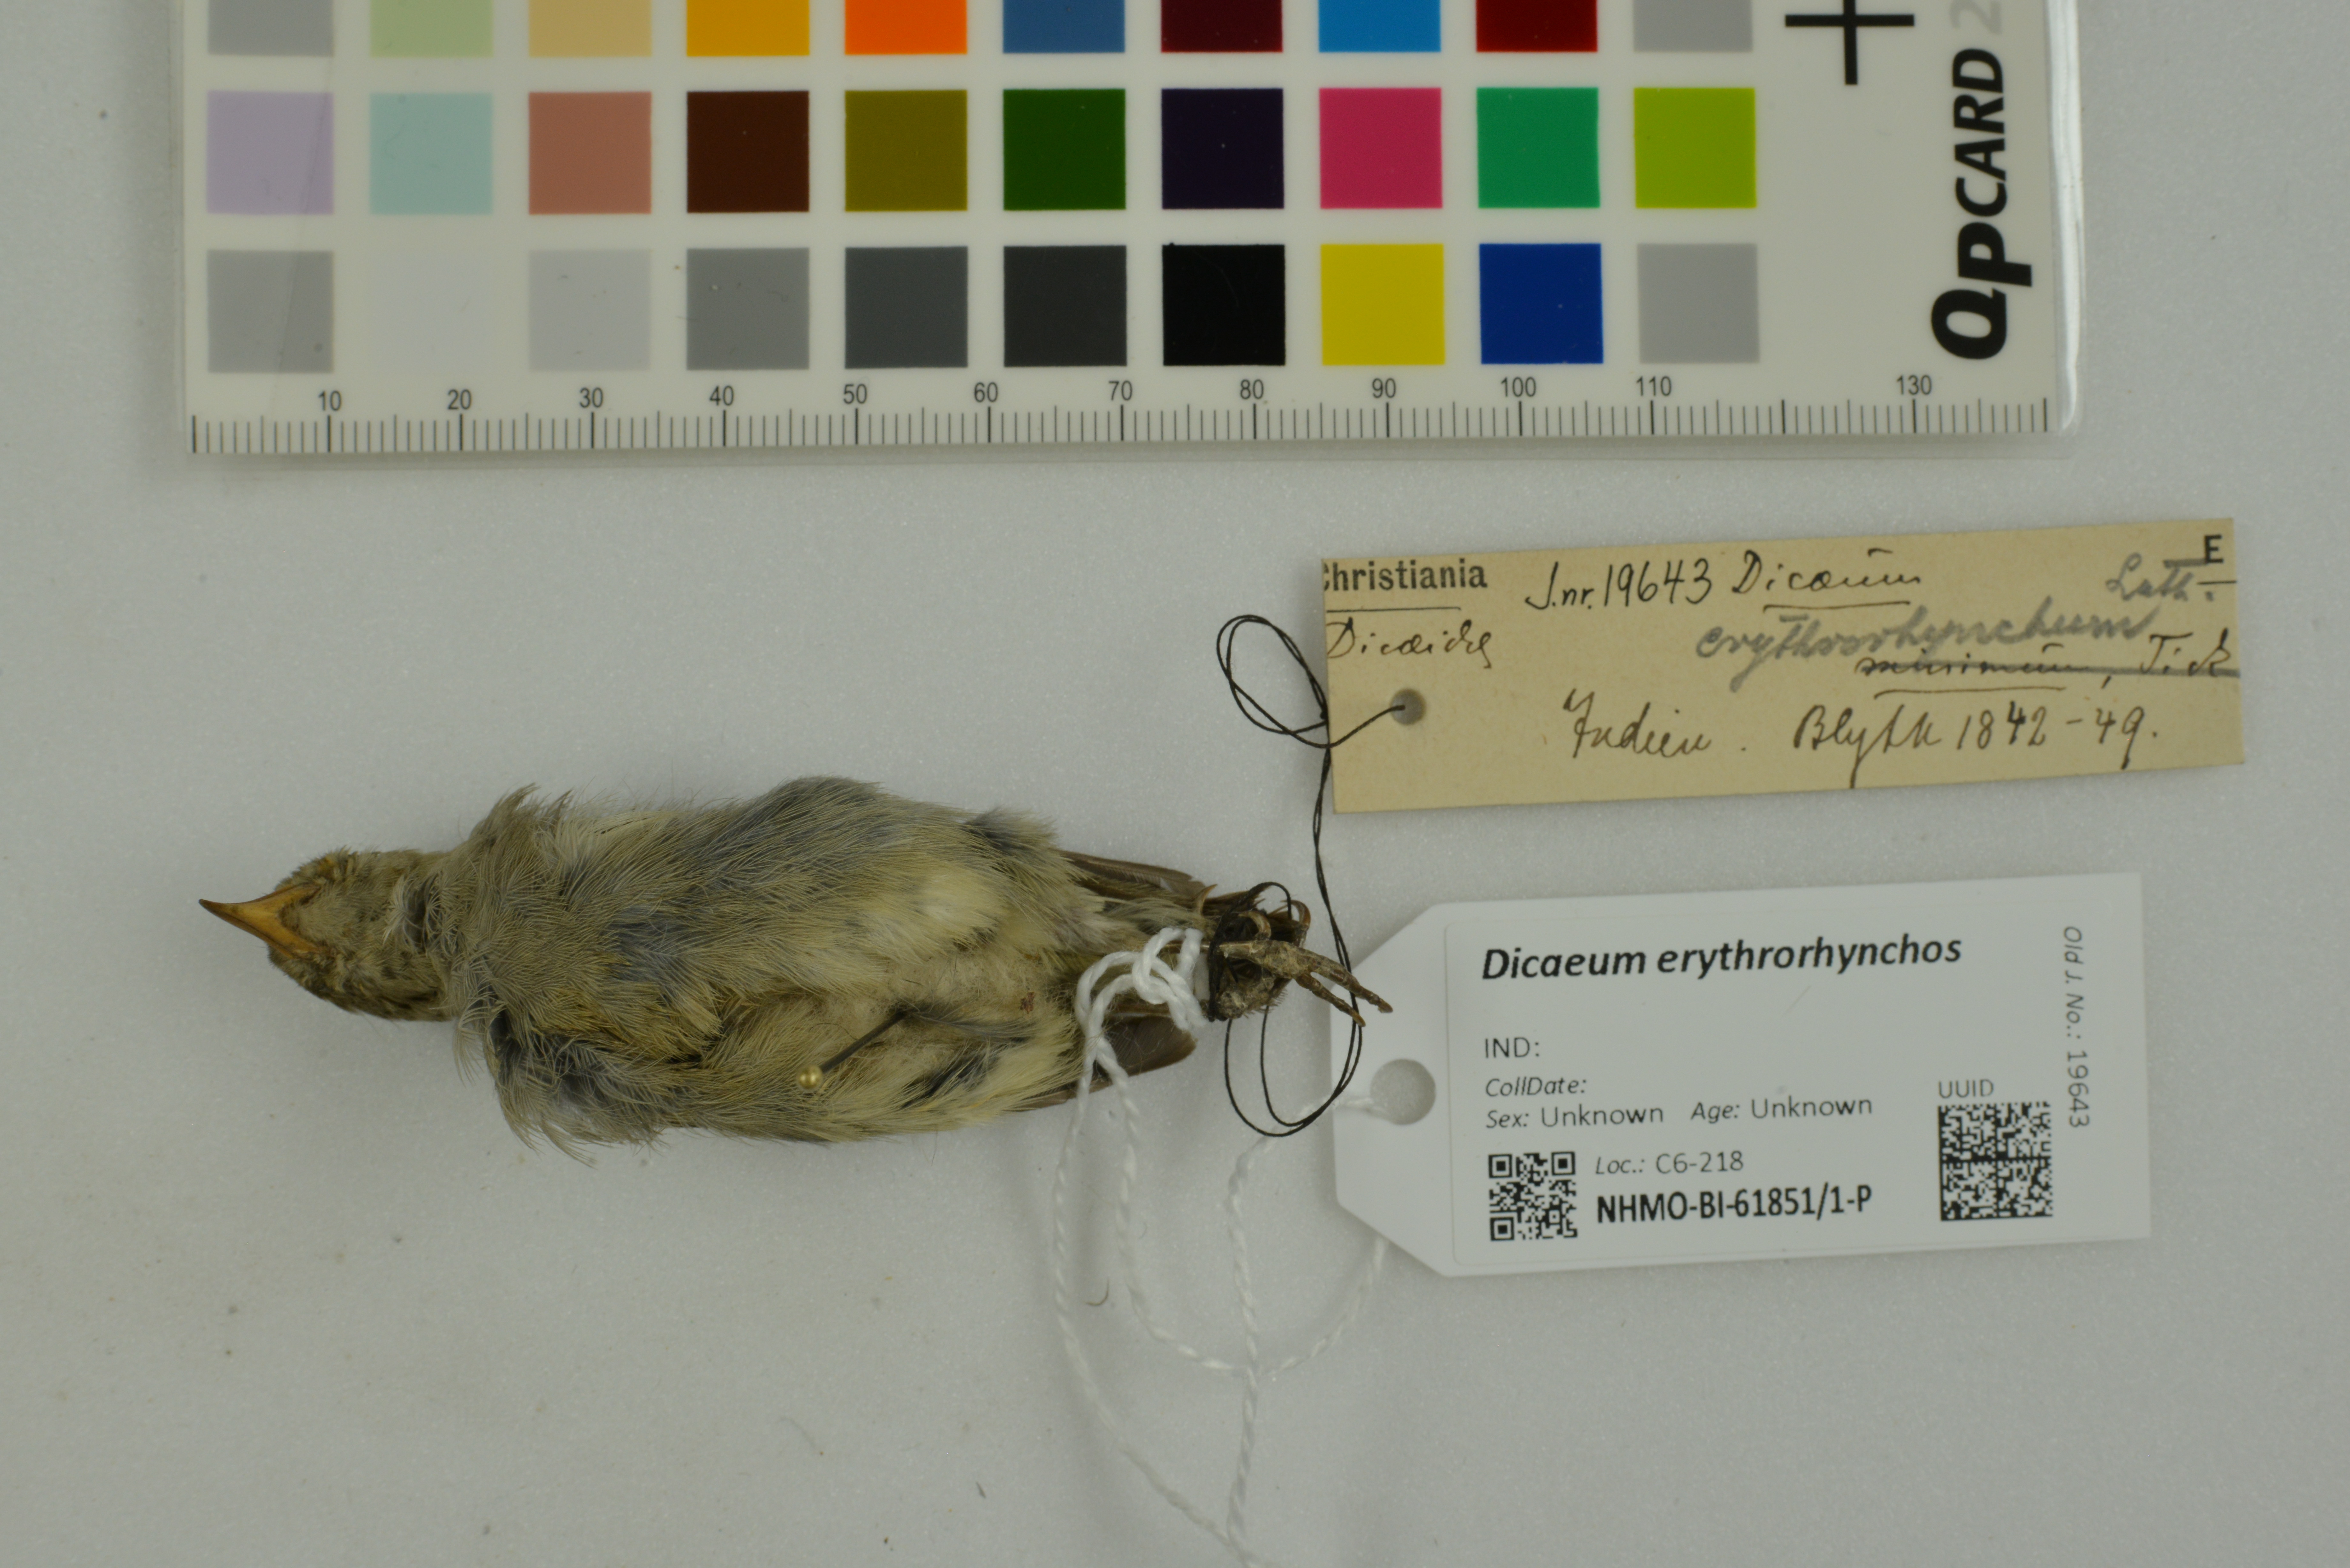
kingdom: Animalia
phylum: Chordata
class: Aves
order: Passeriformes
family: Dicaeidae
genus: Dicaeum
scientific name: Dicaeum erythrorhynchos
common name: Pale-billed flowerpecker
